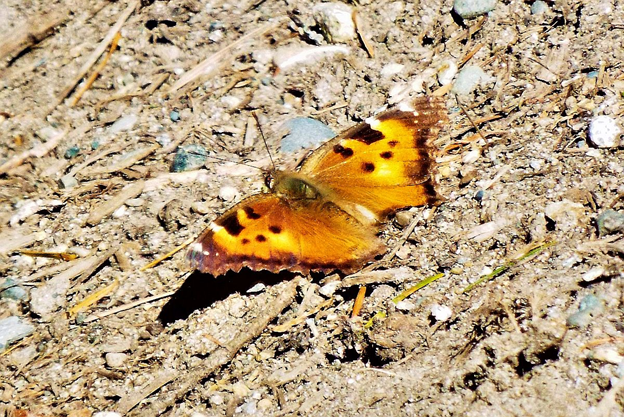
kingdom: Animalia
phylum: Arthropoda
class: Insecta
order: Lepidoptera
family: Nymphalidae
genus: Nymphalis
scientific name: Nymphalis californica
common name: California Tortoiseshell
